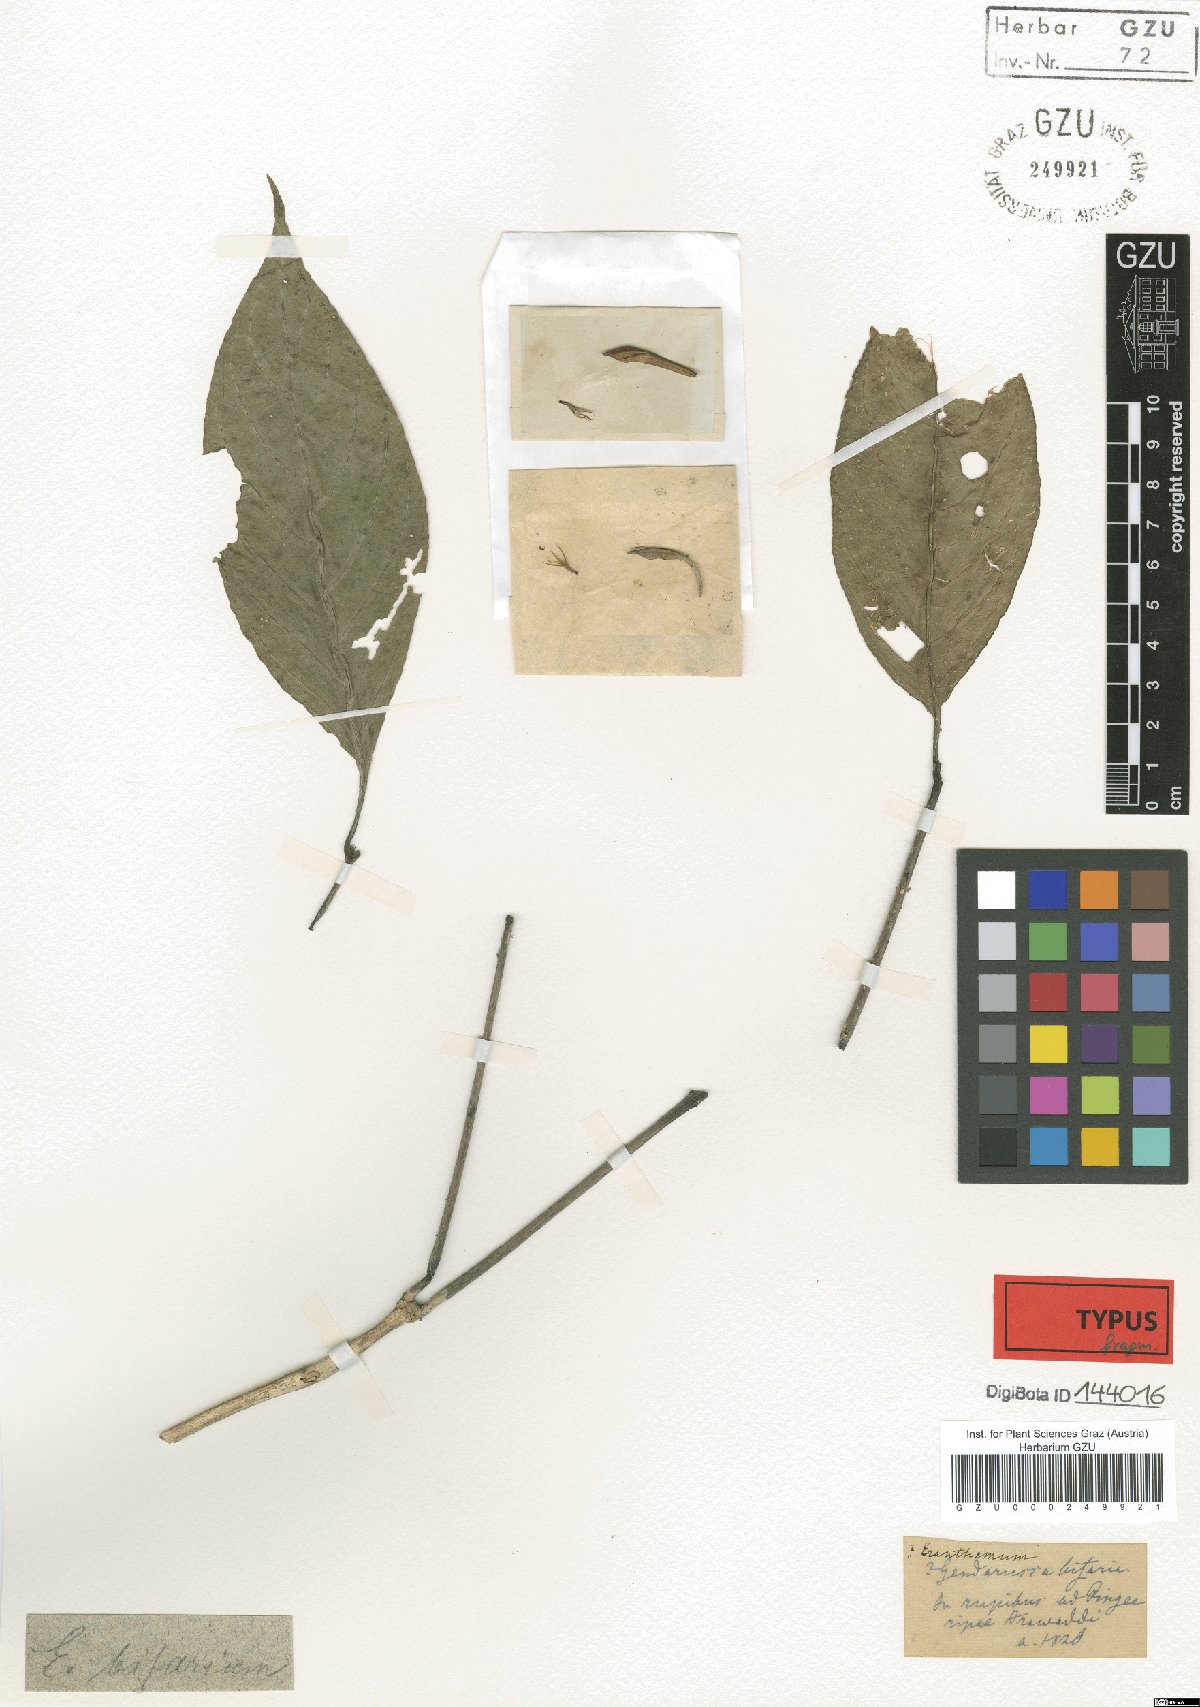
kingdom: Plantae
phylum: Tracheophyta
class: Magnoliopsida
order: Lamiales
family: Acanthaceae
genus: Justicia
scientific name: Justicia Gendarussa bifaria
